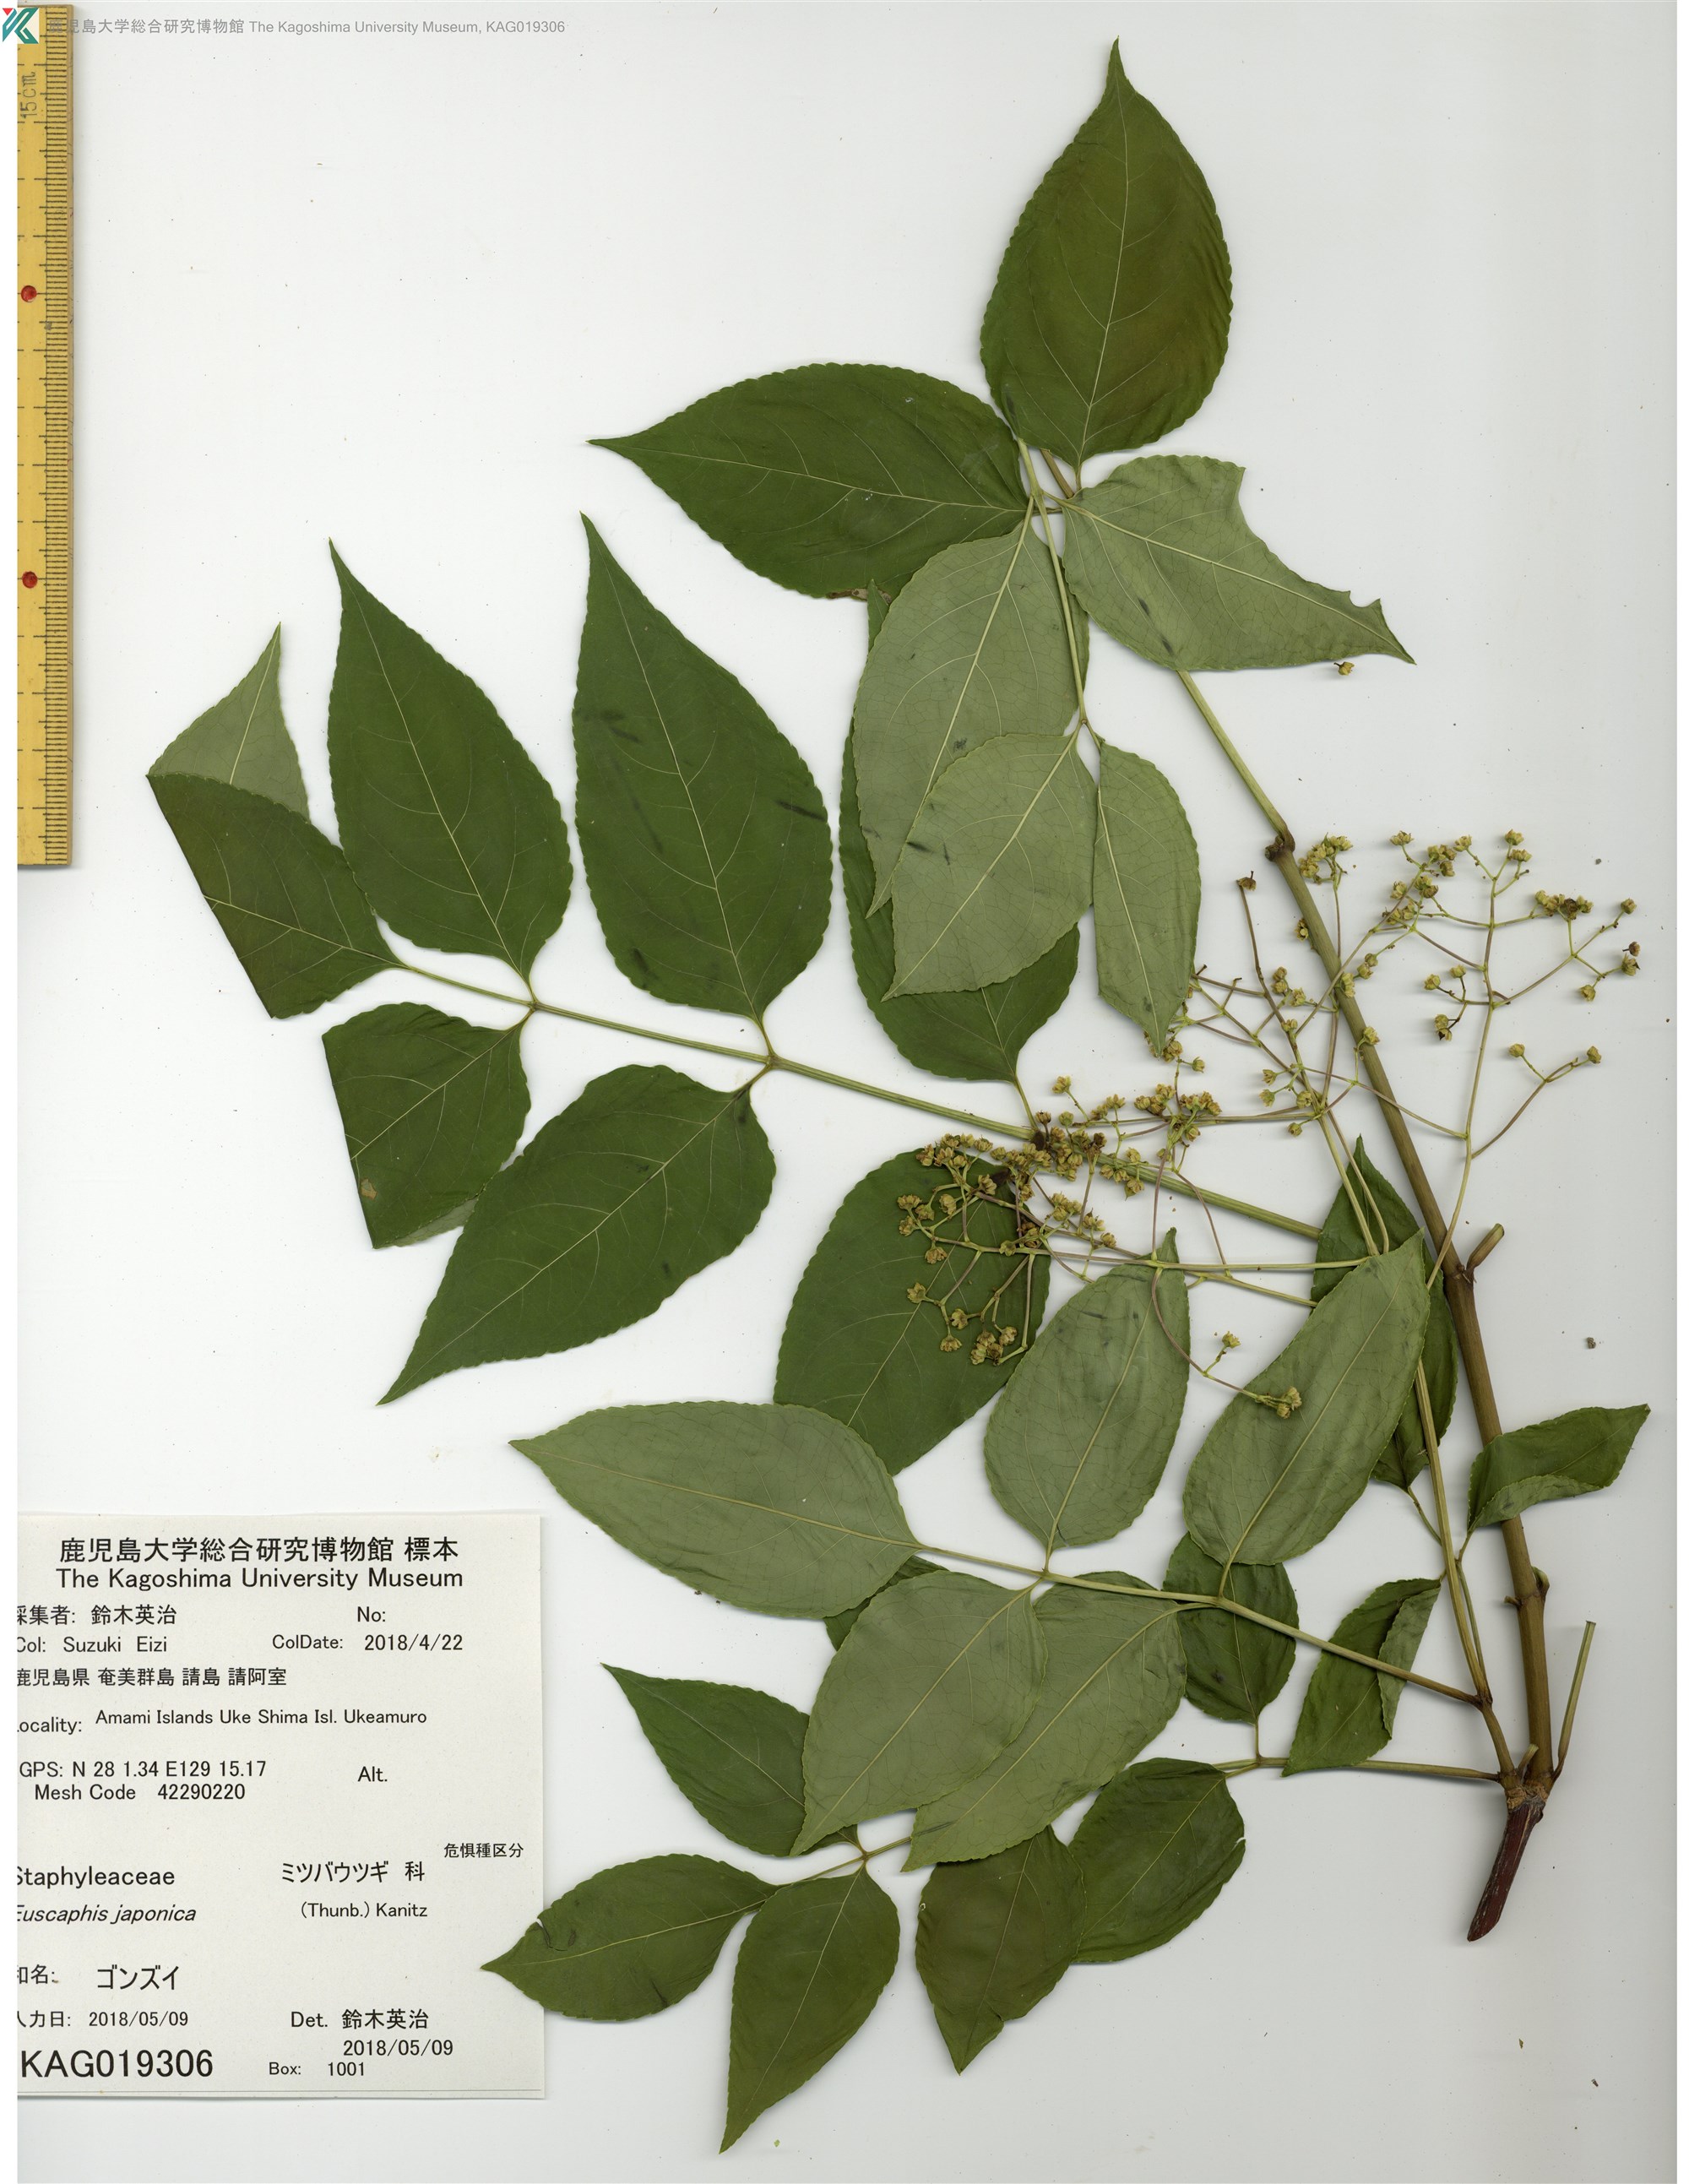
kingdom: Plantae
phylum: Tracheophyta
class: Magnoliopsida
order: Crossosomatales
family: Staphyleaceae
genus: Staphylea
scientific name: Staphylea japonica
